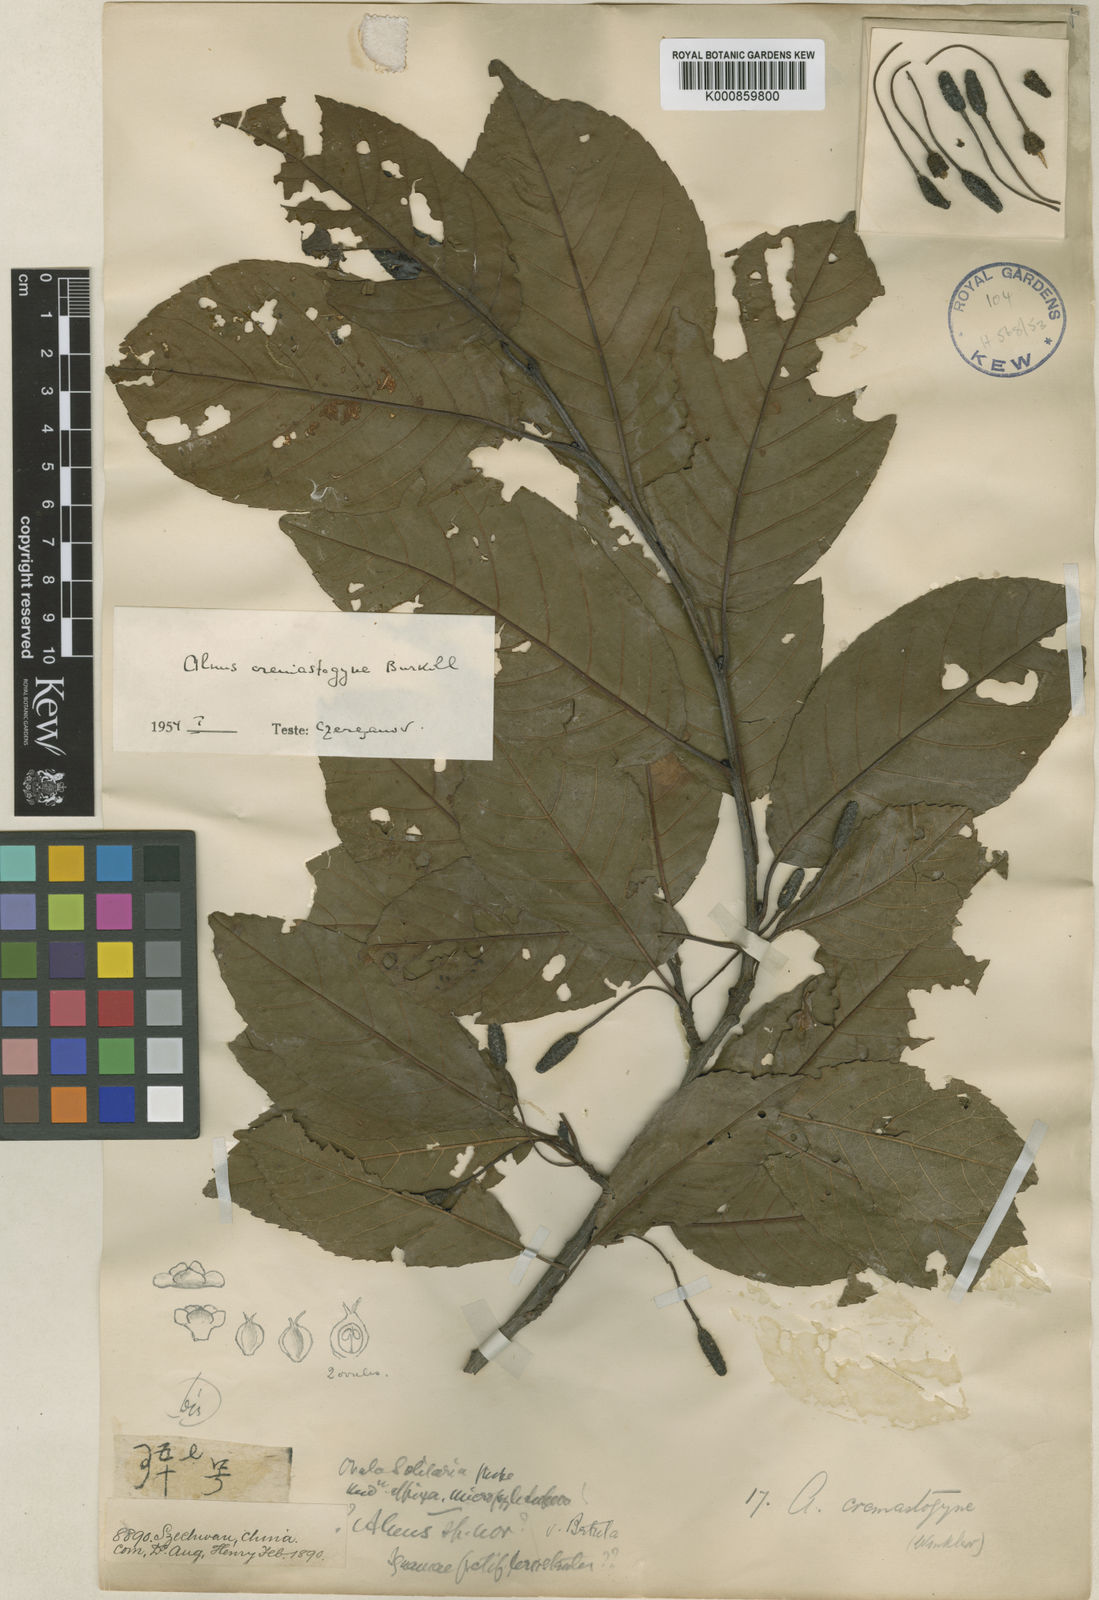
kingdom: Plantae
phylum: Tracheophyta
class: Magnoliopsida
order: Fagales
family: Betulaceae
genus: Alnus
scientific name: Alnus cremastogyne
